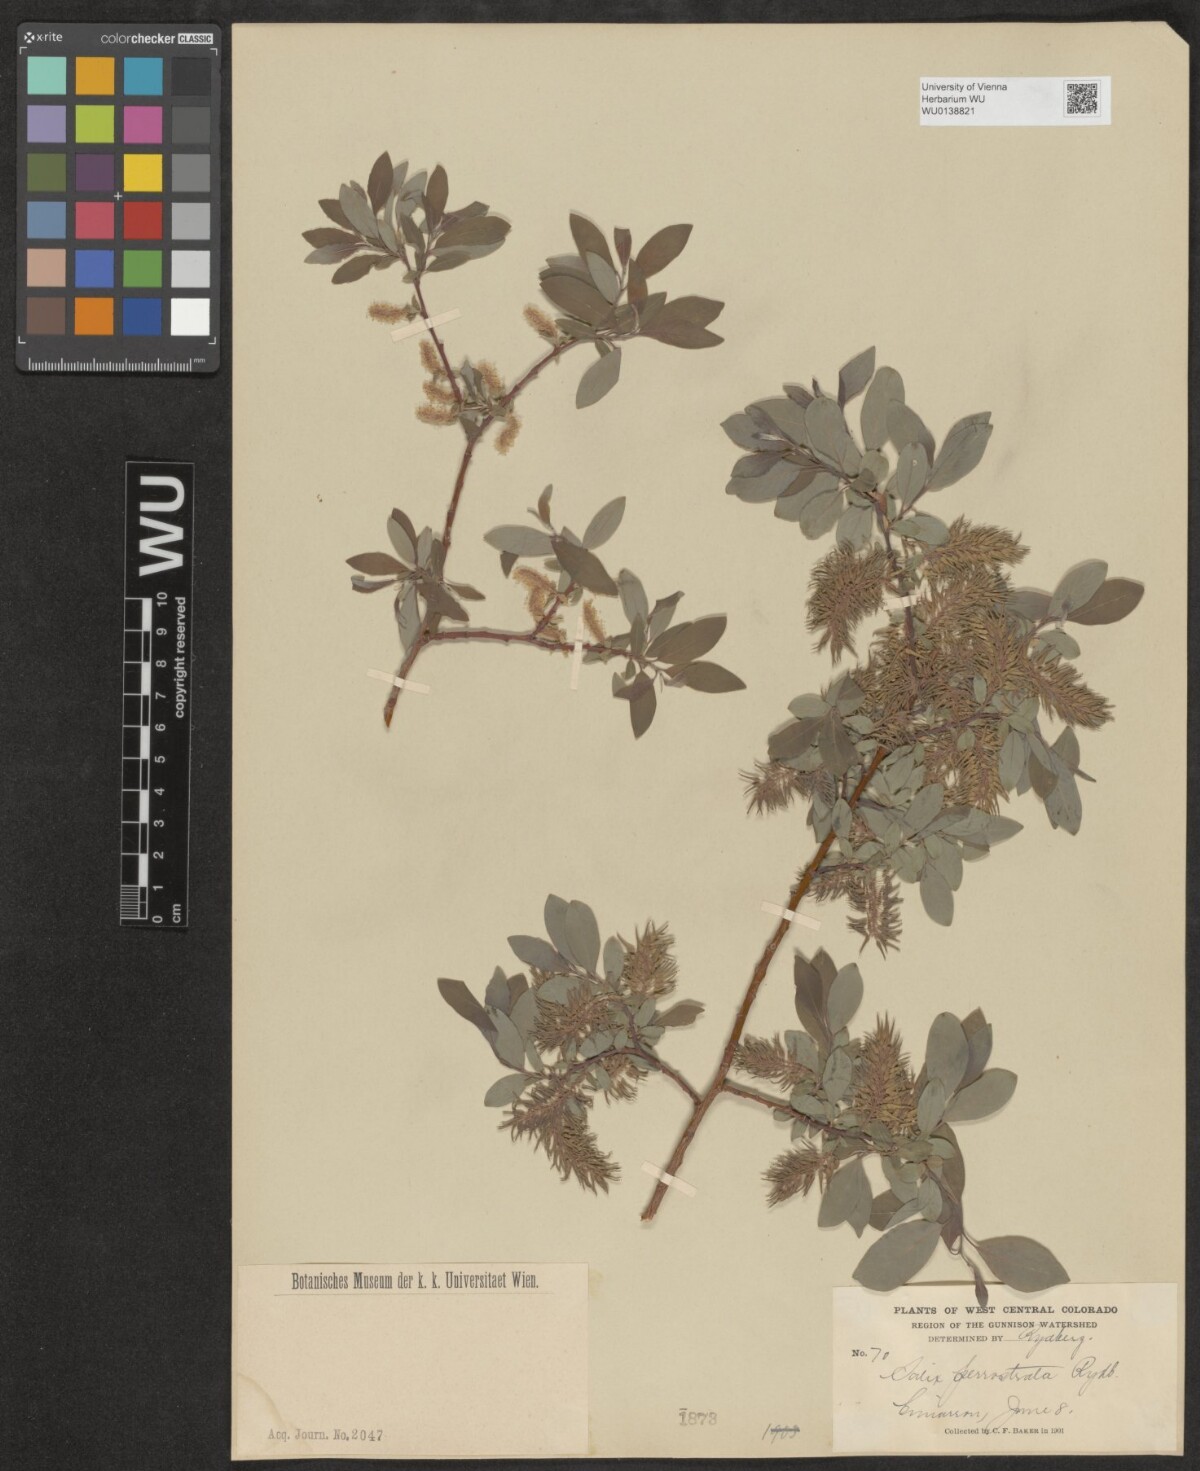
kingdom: Plantae
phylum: Tracheophyta
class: Magnoliopsida
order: Malpighiales
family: Salicaceae
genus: Salix
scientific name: Salix bebbiana
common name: Bebb's willow
